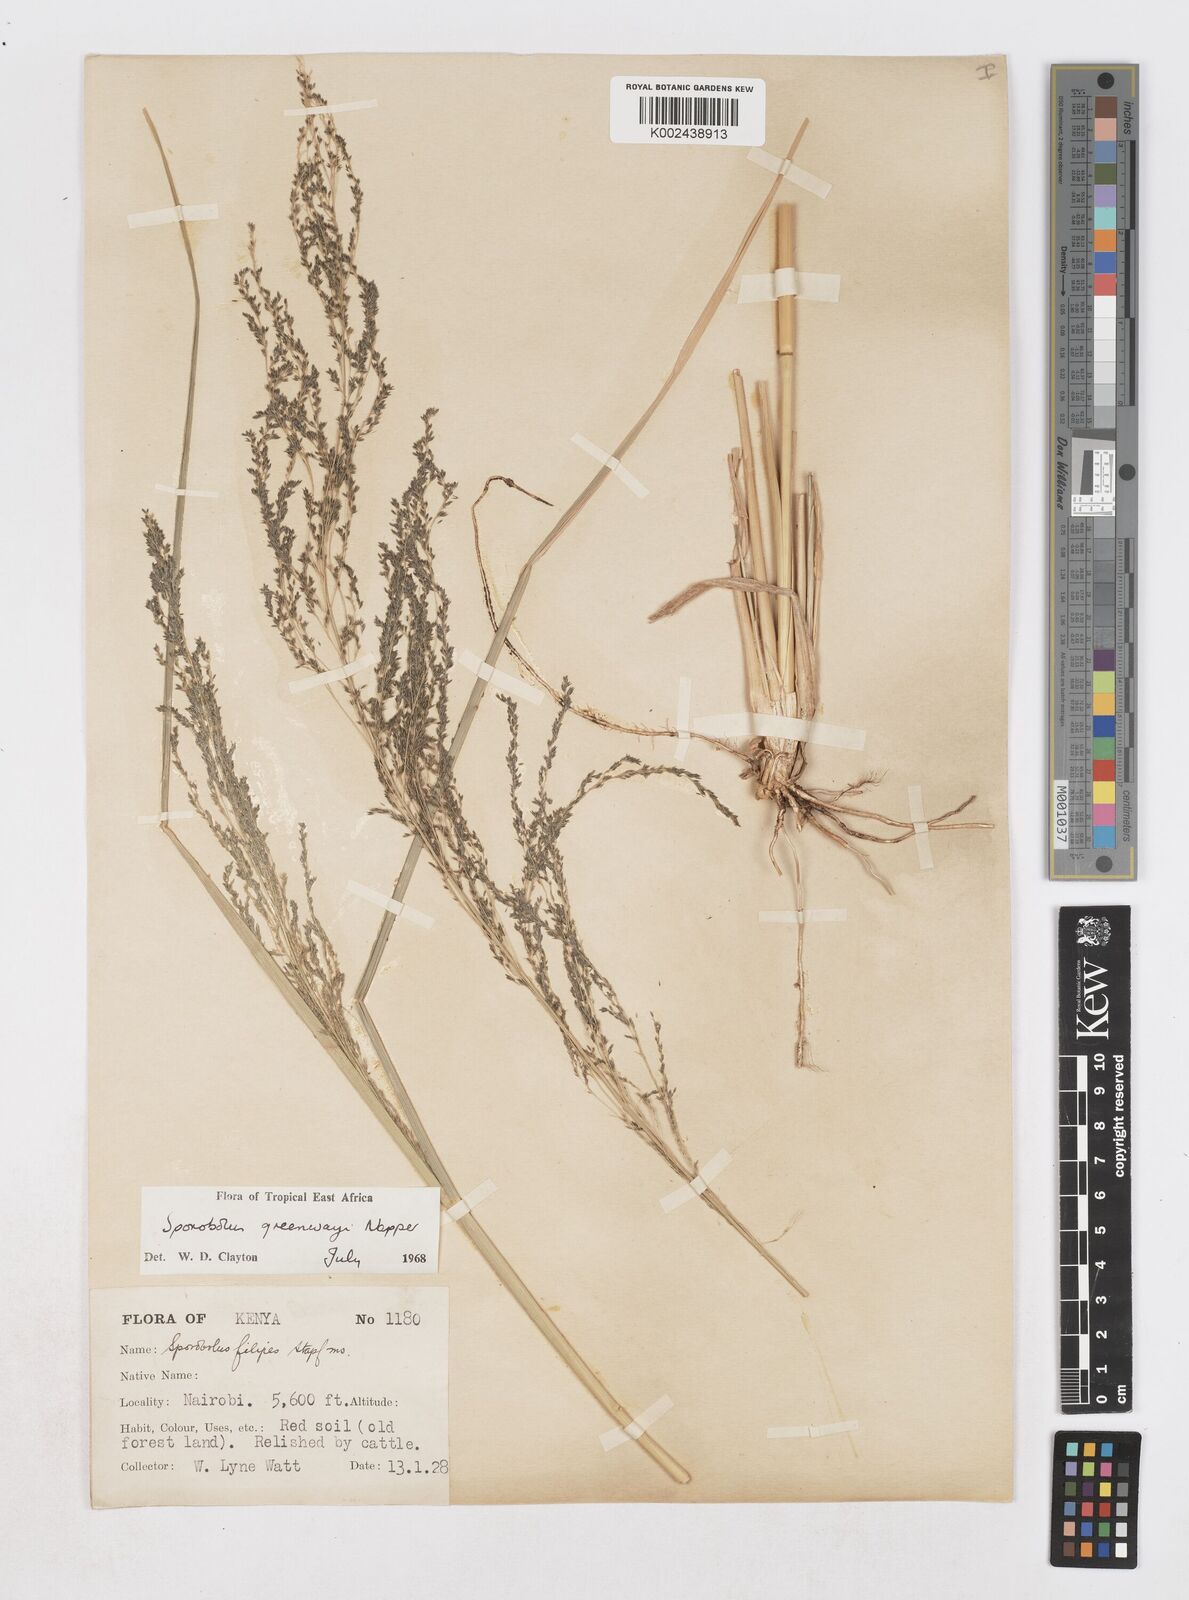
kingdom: Plantae
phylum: Tracheophyta
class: Liliopsida
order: Poales
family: Poaceae
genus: Sporobolus
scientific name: Sporobolus macranthelus
